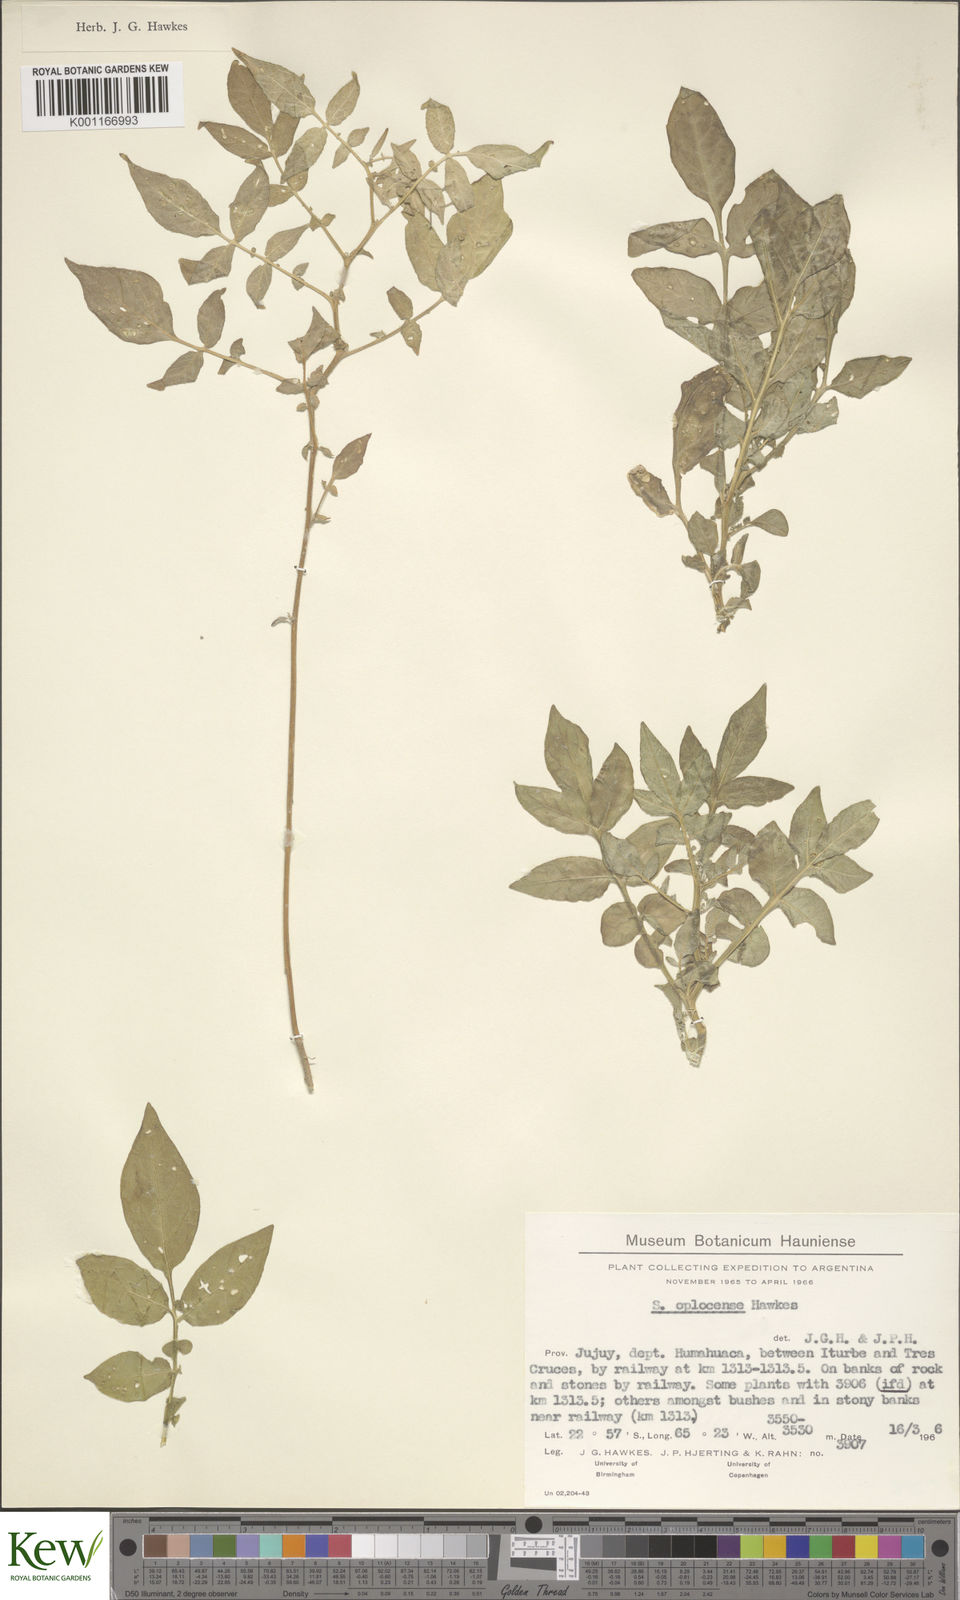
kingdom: Plantae
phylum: Tracheophyta
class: Magnoliopsida
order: Solanales
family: Solanaceae
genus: Solanum
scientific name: Solanum brevicaule
